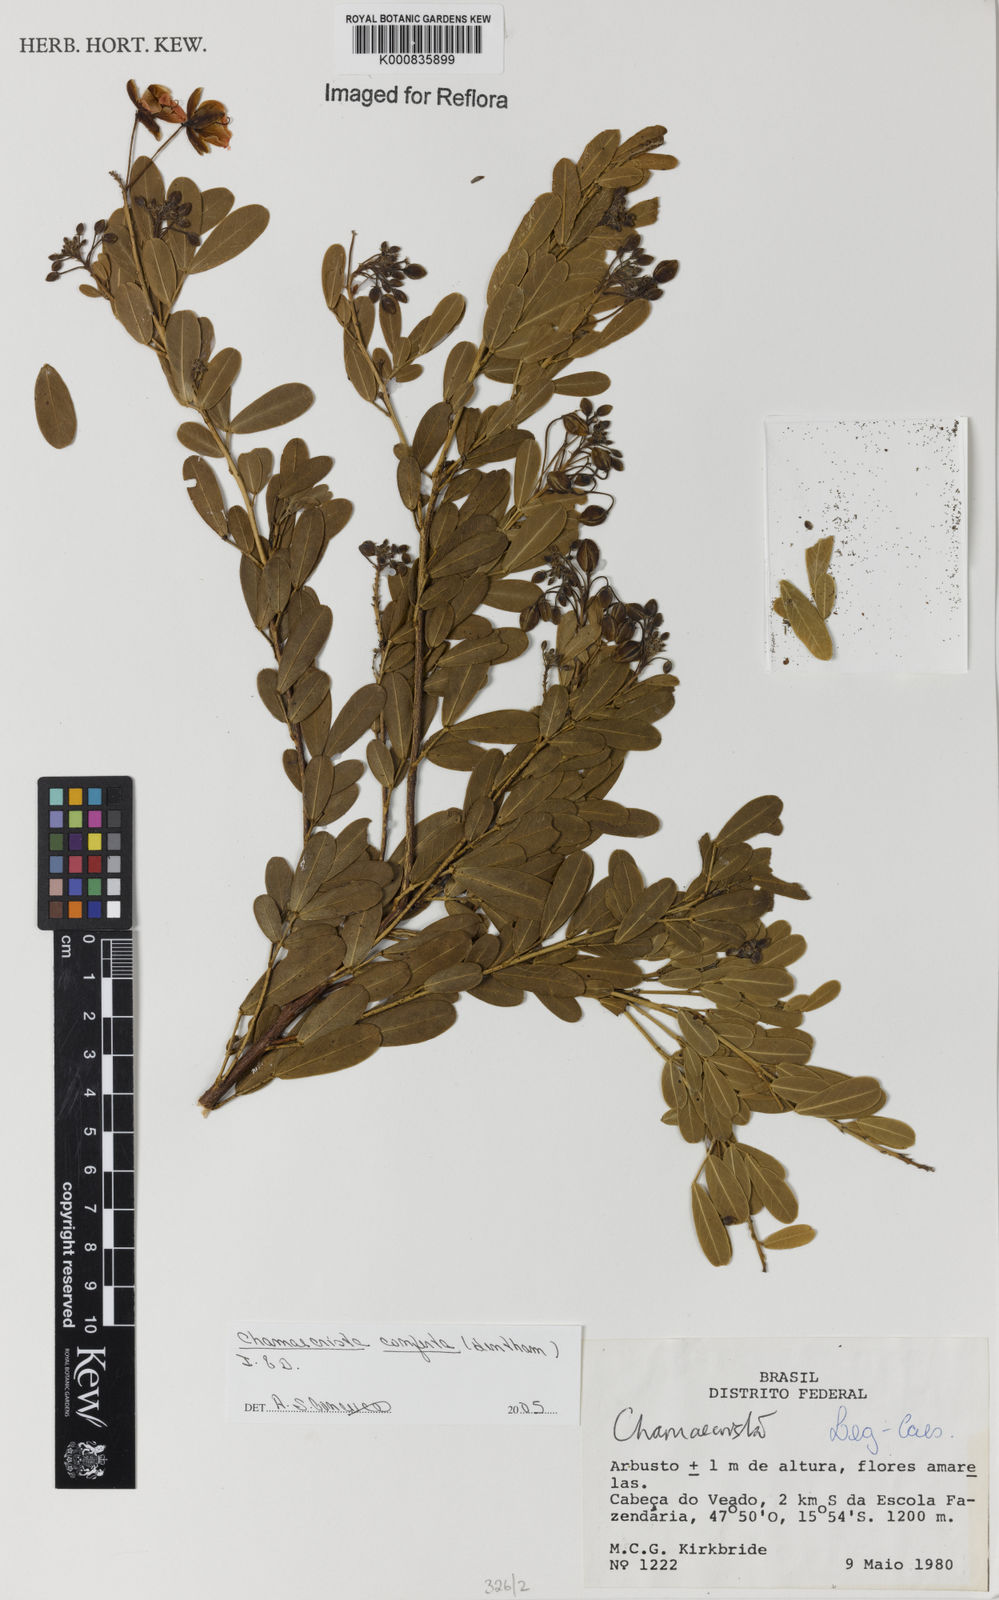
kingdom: Plantae
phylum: Tracheophyta
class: Magnoliopsida
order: Fabales
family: Fabaceae
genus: Chamaecrista
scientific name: Chamaecrista conferta
